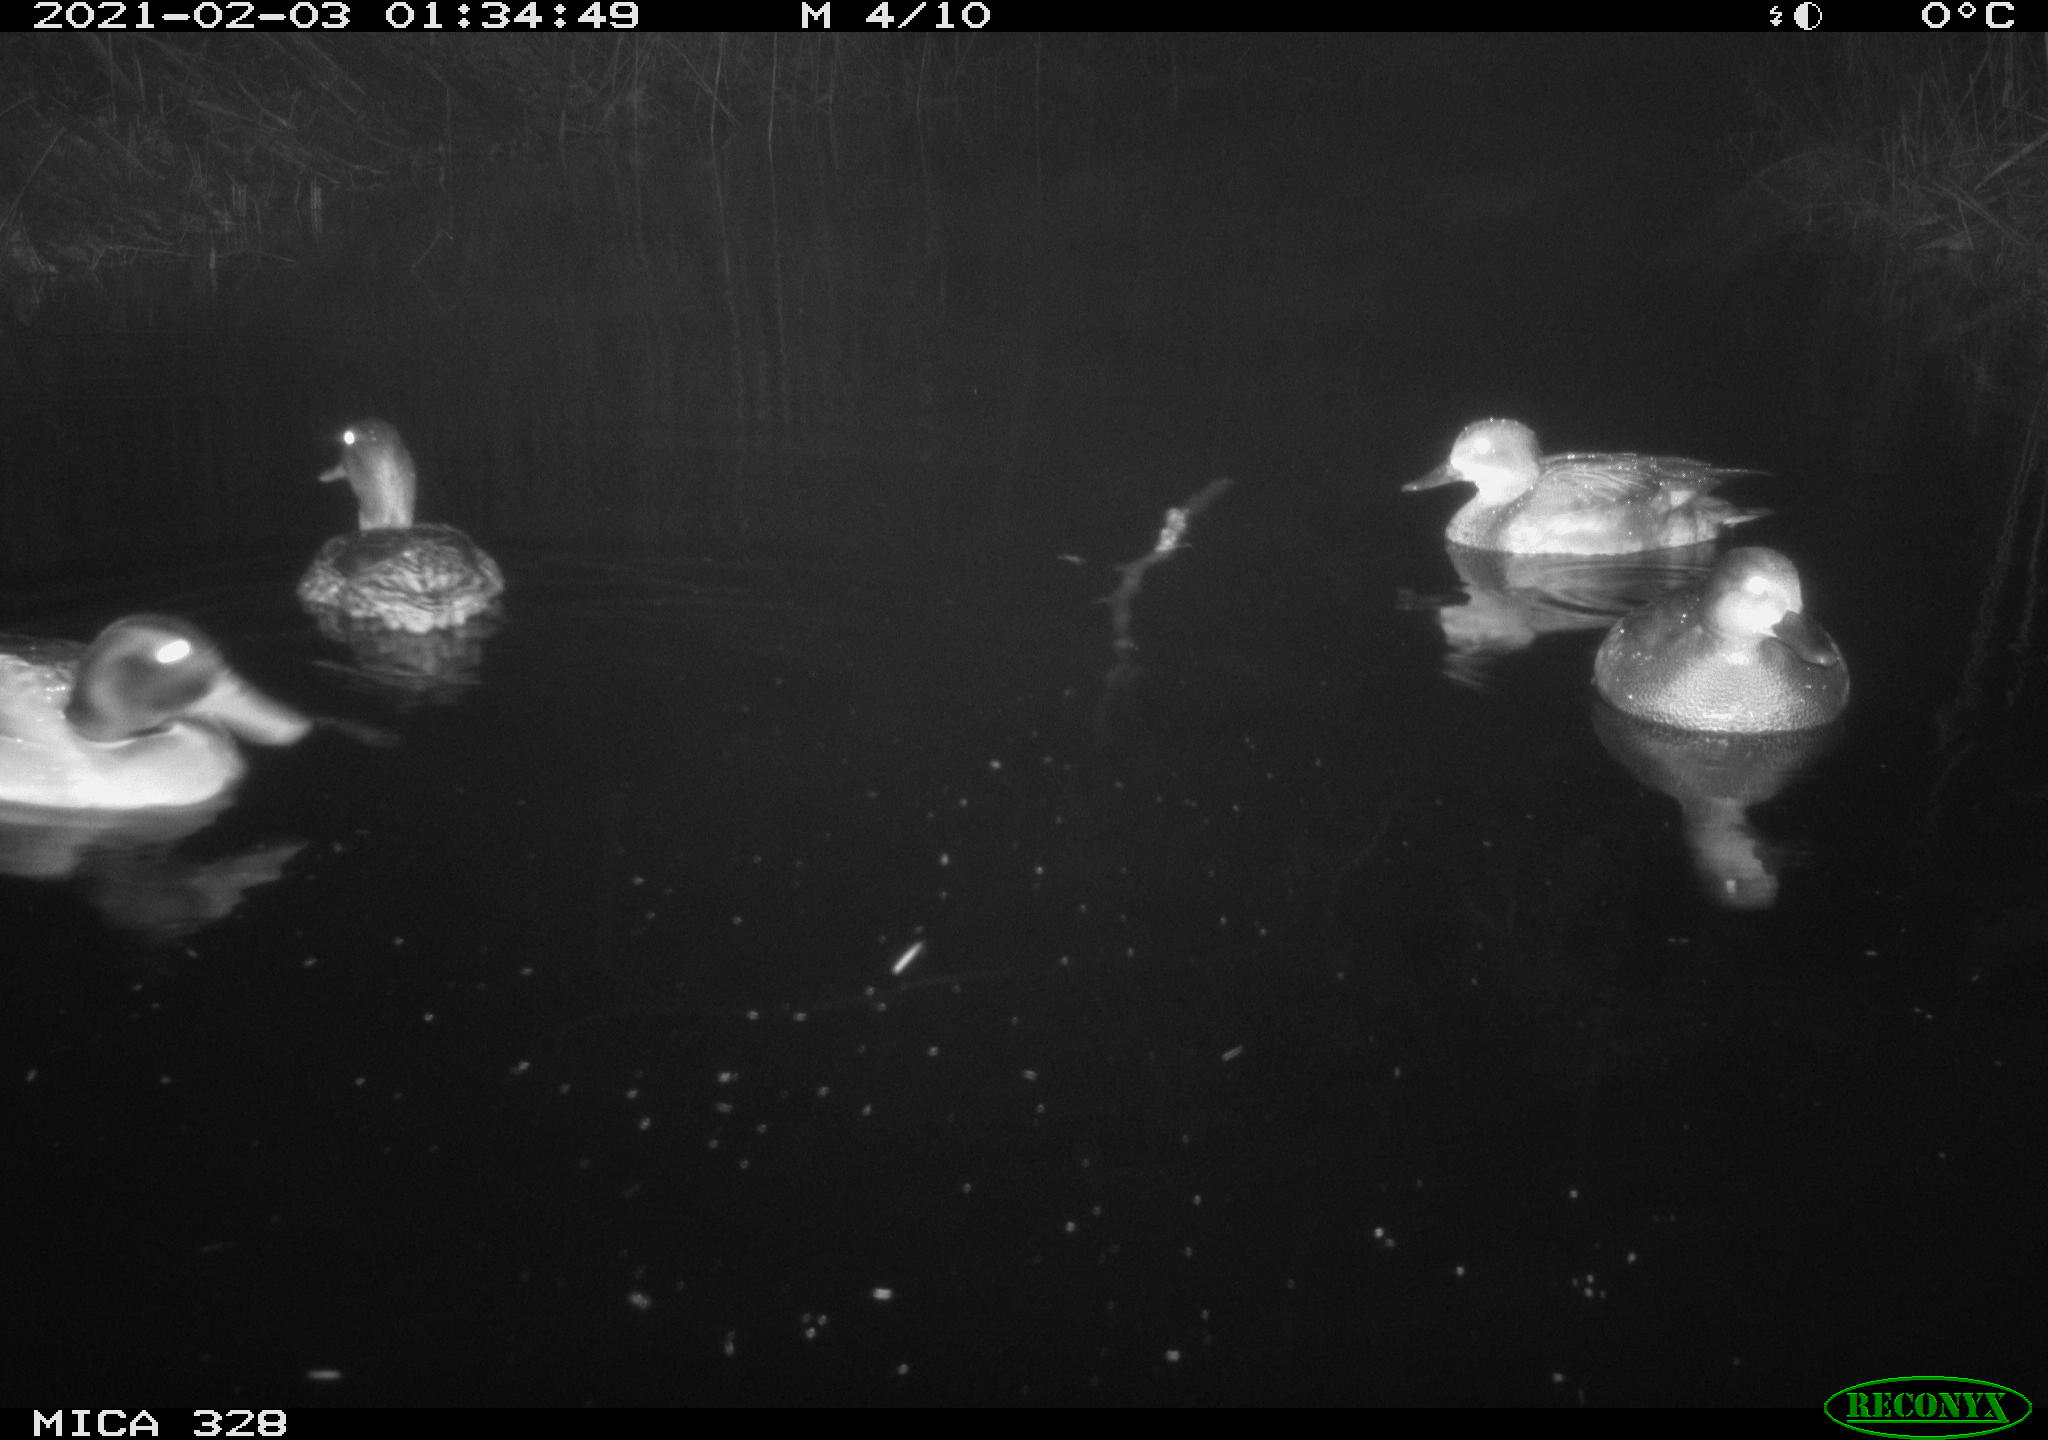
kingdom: Animalia
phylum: Chordata
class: Aves
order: Anseriformes
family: Anatidae
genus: Anas
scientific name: Anas platyrhynchos
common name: Mallard
